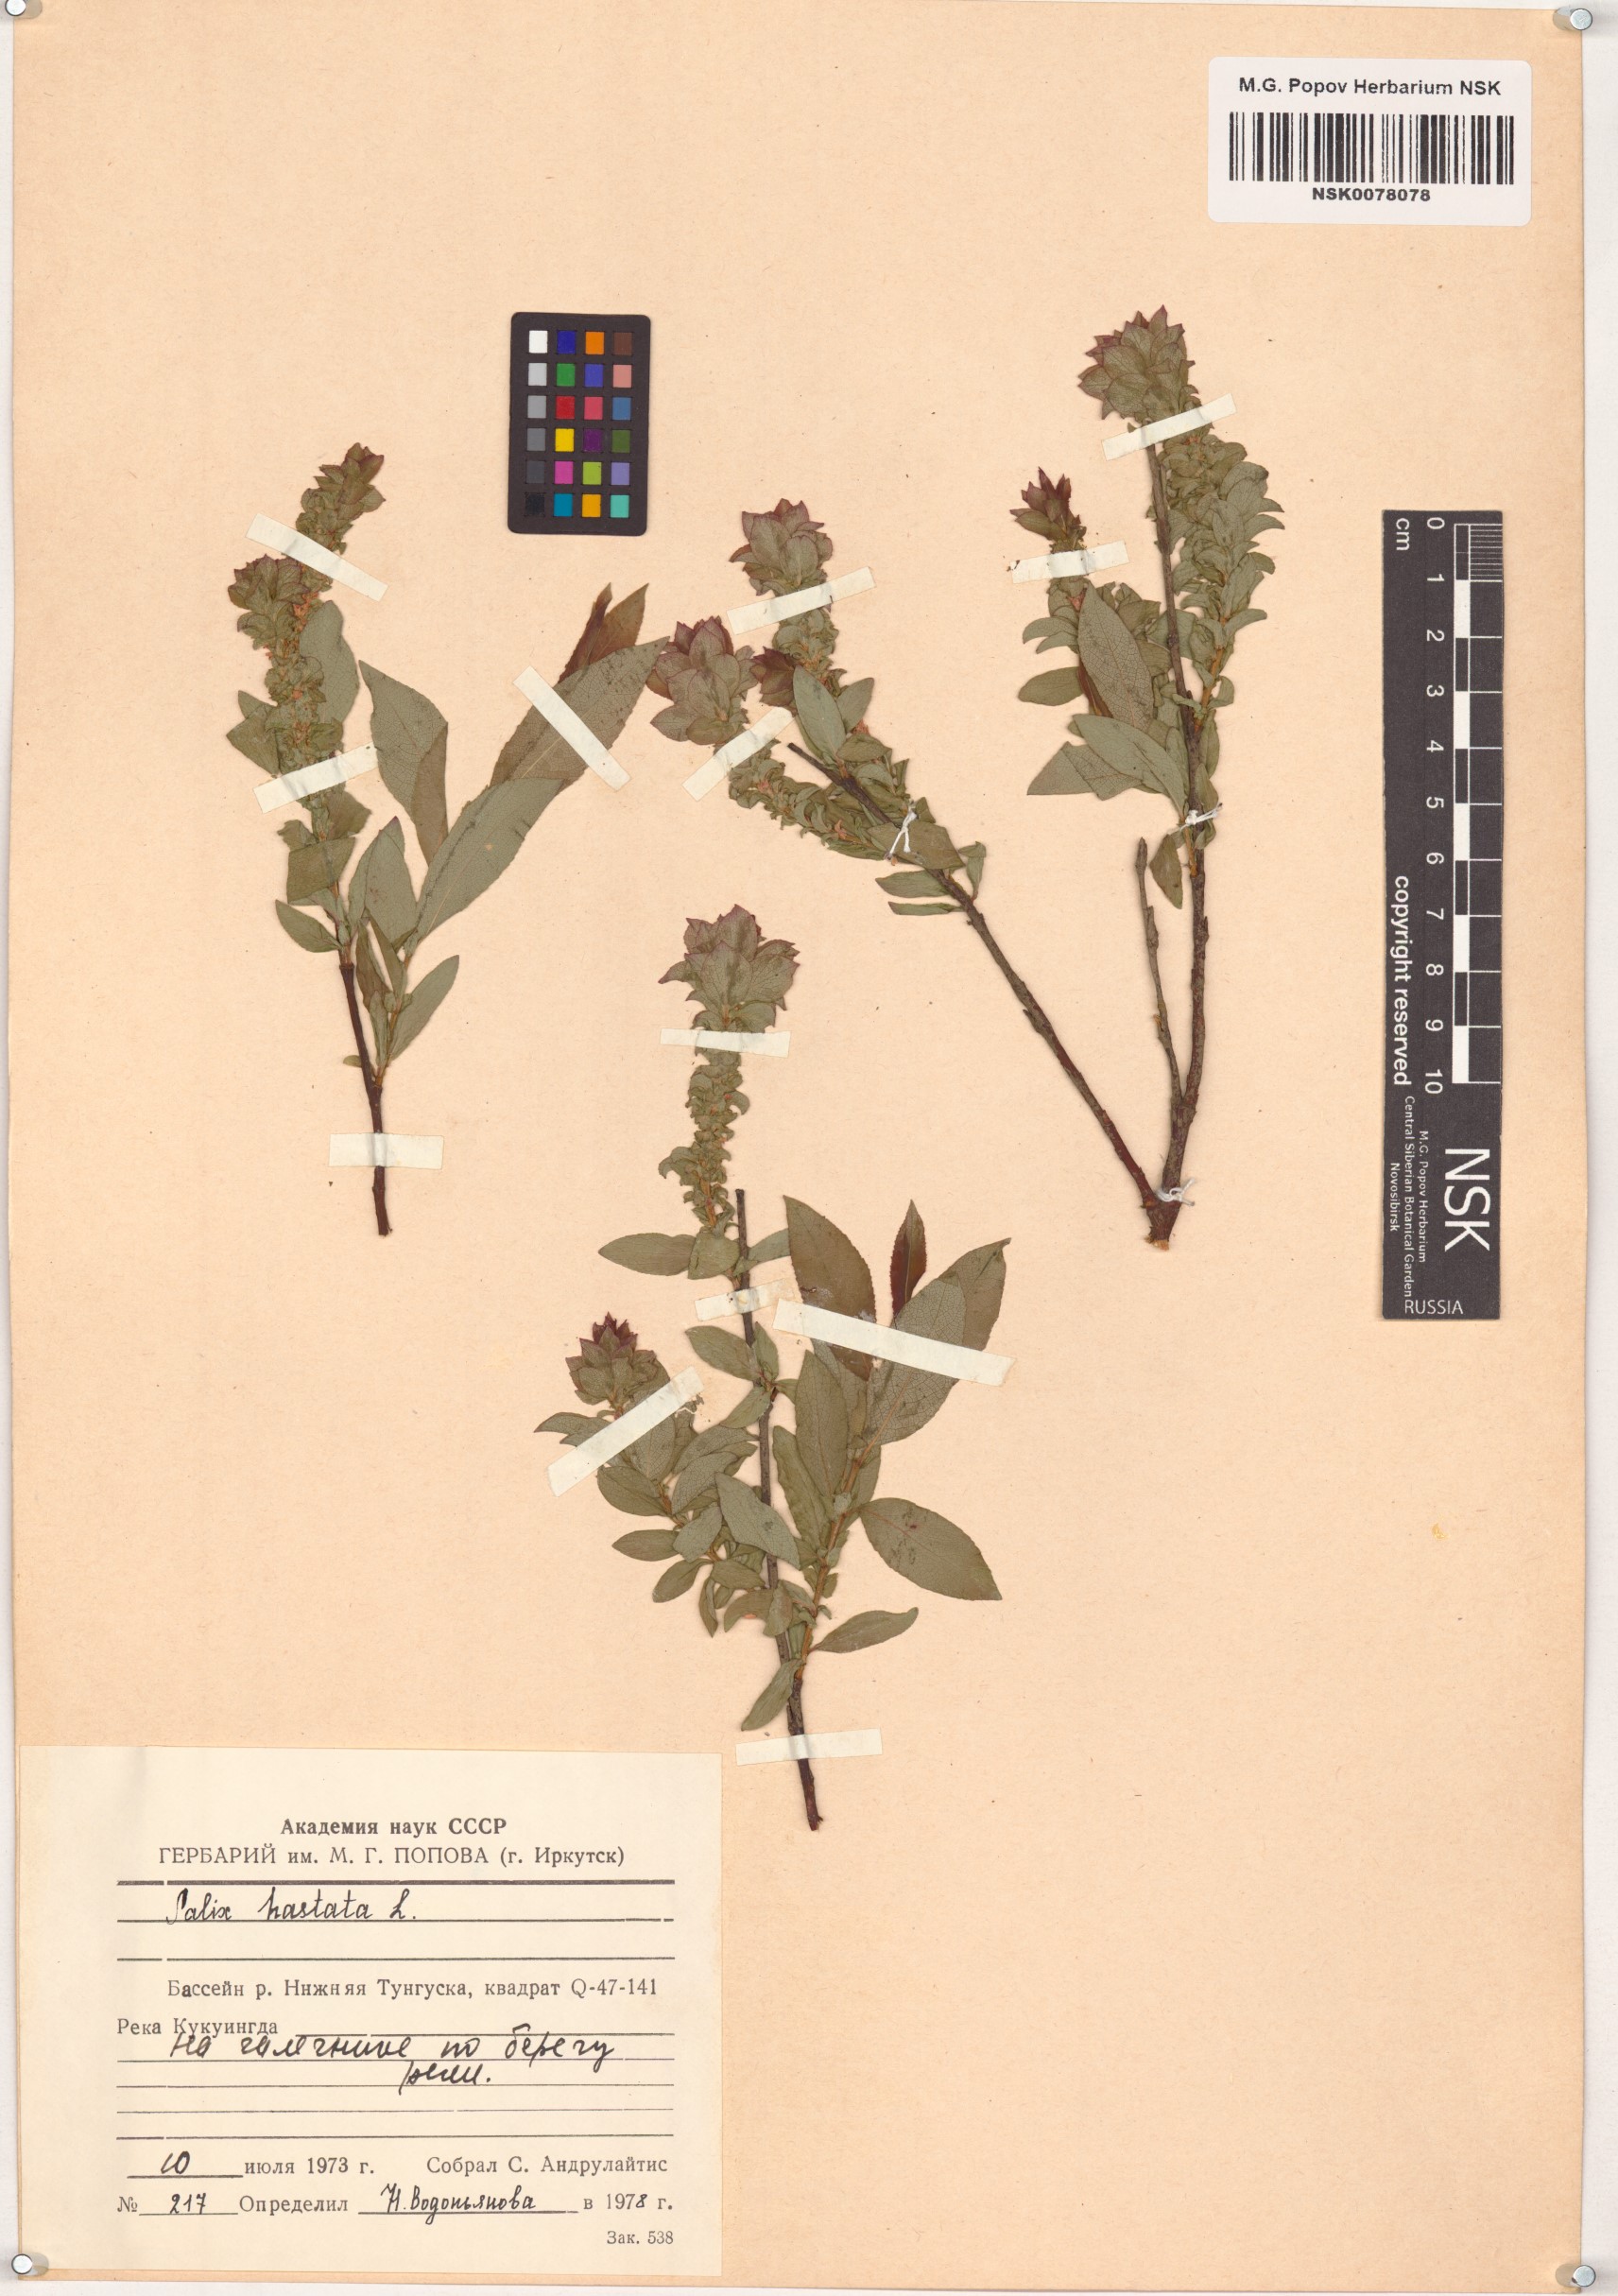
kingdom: Plantae
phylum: Tracheophyta
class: Magnoliopsida
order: Malpighiales
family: Salicaceae
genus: Salix
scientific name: Salix hastata
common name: Halberd willow
